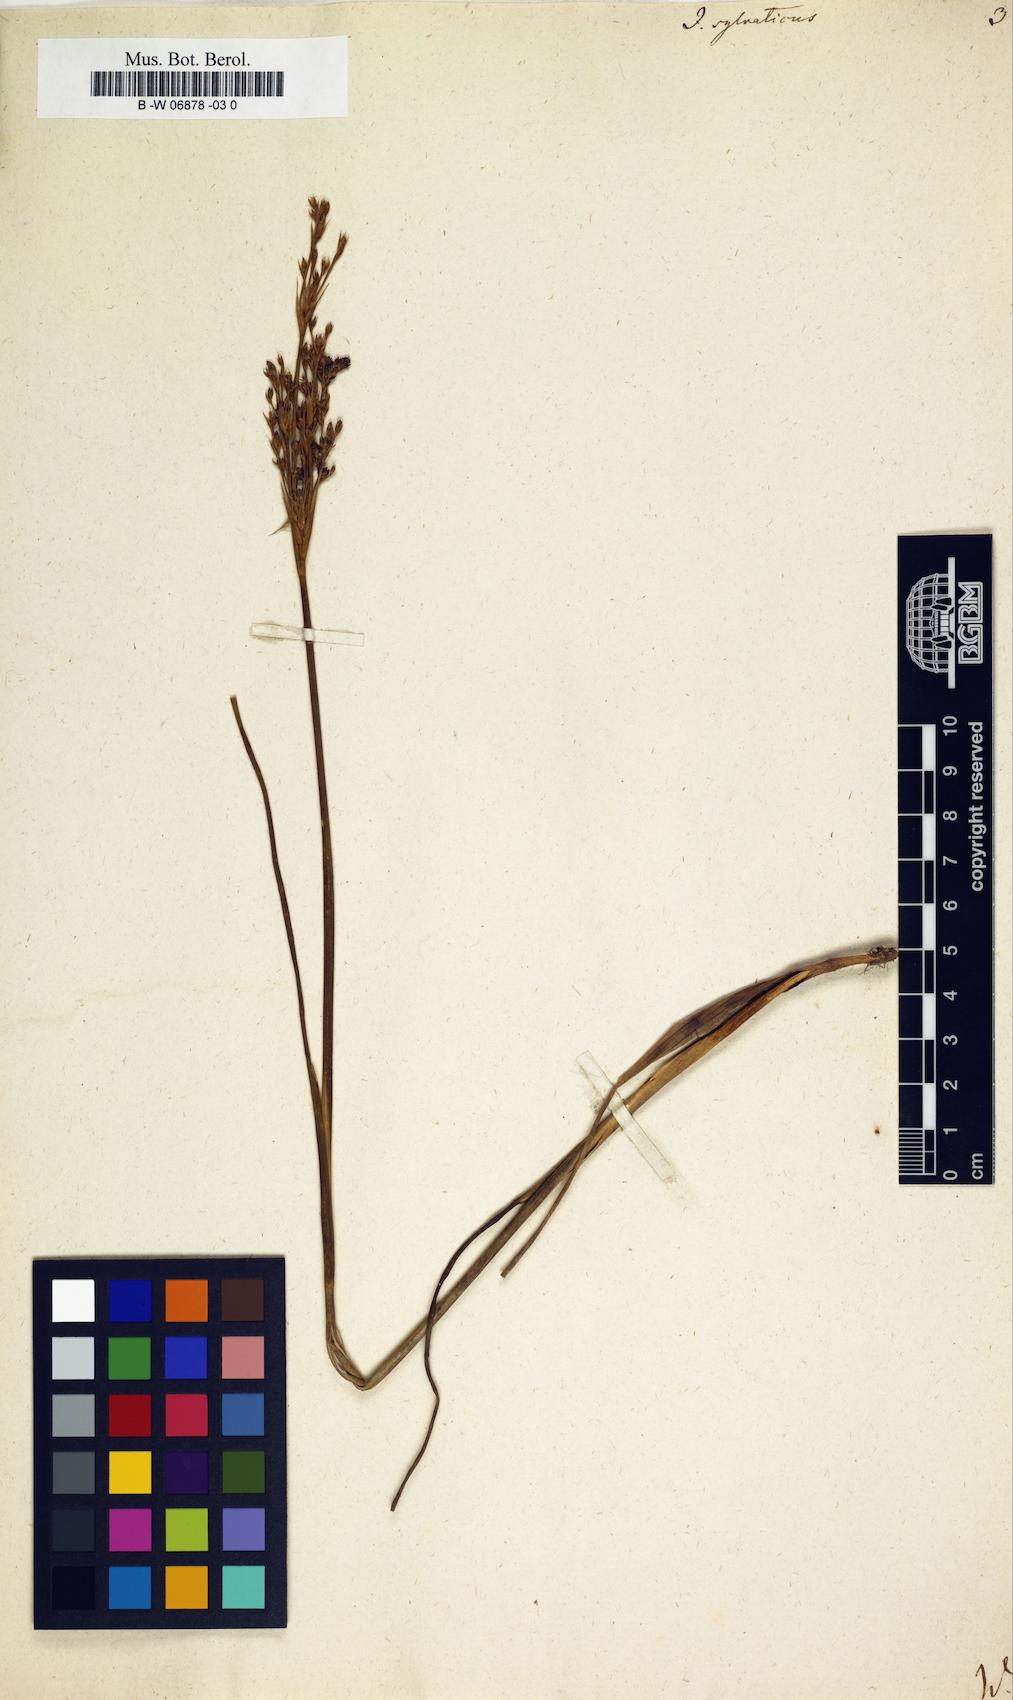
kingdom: Plantae
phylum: Tracheophyta
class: Liliopsida
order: Poales
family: Juncaceae
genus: Luzula
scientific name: Luzula sylvatica
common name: Great wood-rush
